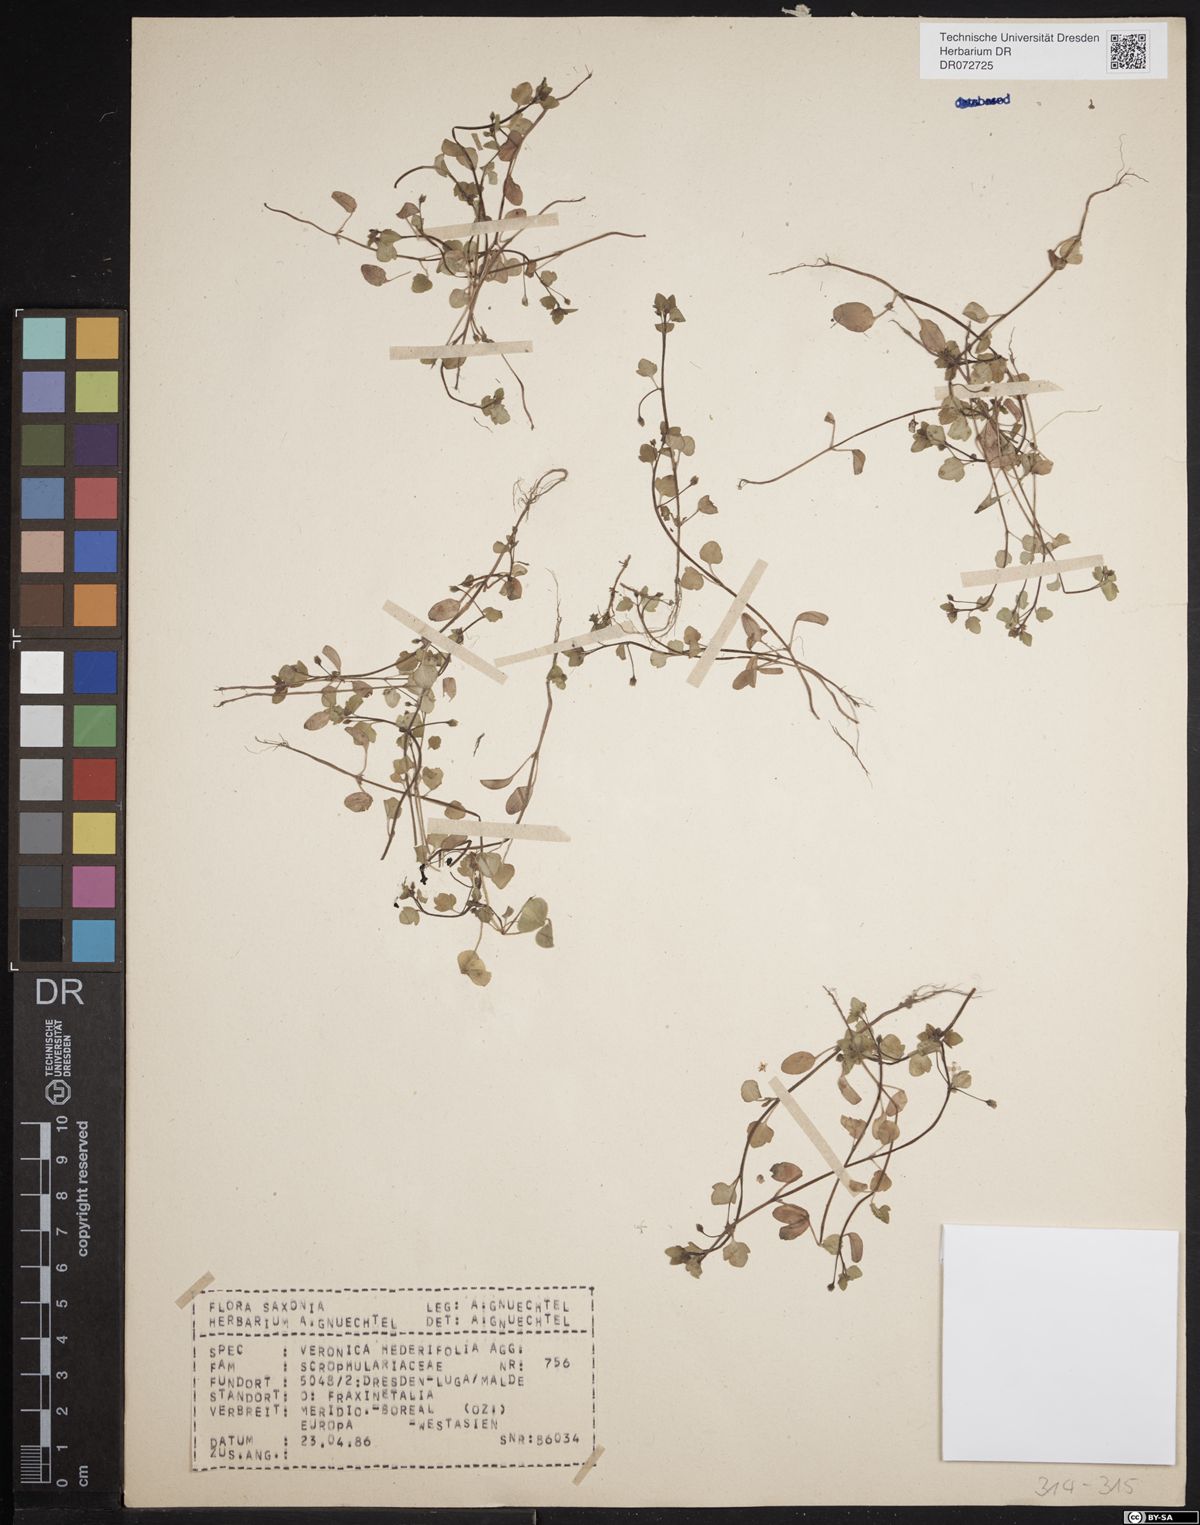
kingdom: Plantae
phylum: Tracheophyta
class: Magnoliopsida
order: Lamiales
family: Plantaginaceae
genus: Veronica
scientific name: Veronica hederifolia
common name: Ivy-leaved speedwell
